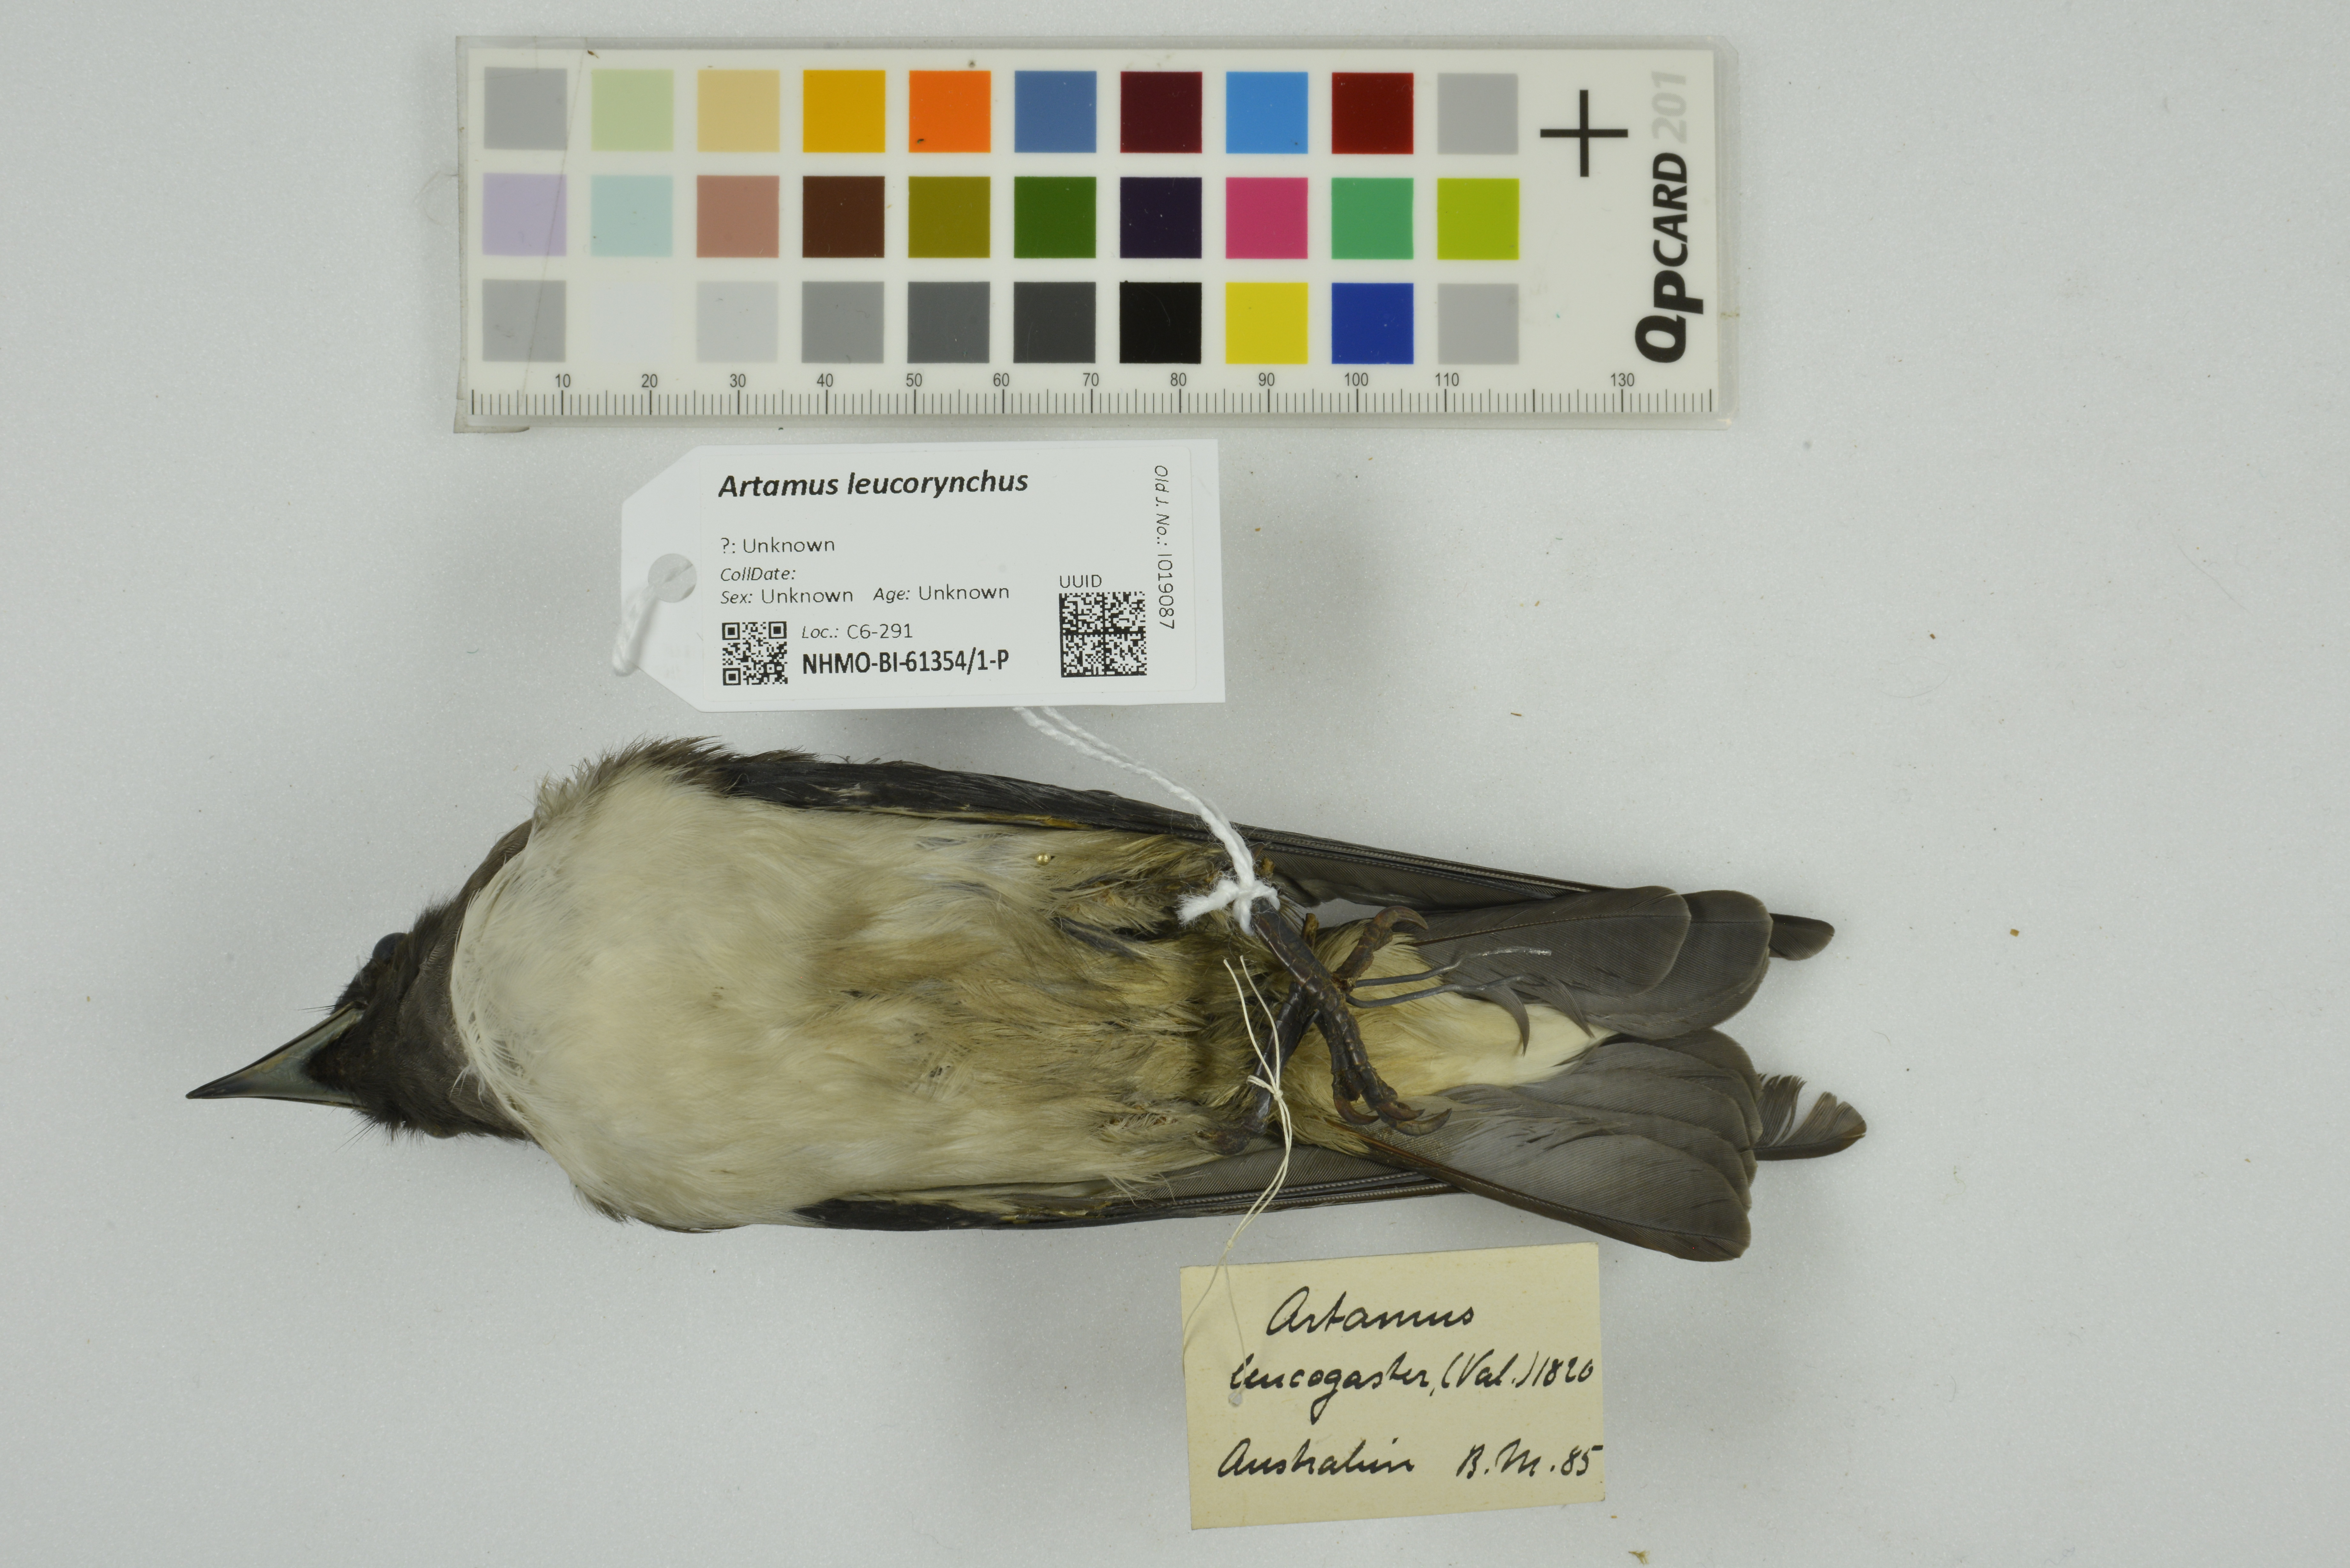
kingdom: Animalia
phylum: Chordata
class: Aves
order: Passeriformes
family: Artamidae
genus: Artamus
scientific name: Artamus leucoryn
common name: White-breasted woodswallow
